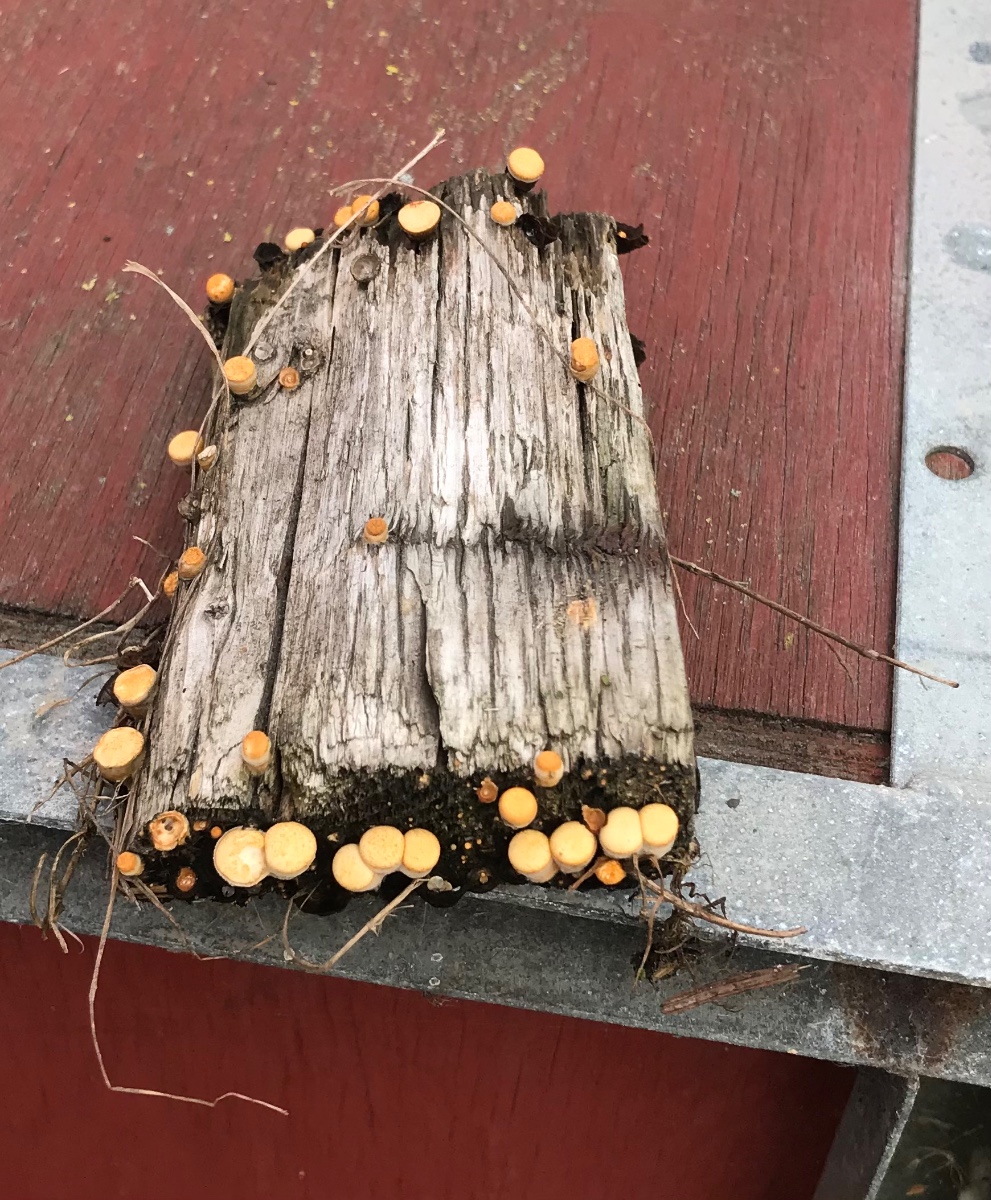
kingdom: Fungi
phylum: Basidiomycota
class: Agaricomycetes
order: Agaricales
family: Nidulariaceae
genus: Crucibulum
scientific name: Crucibulum crucibuliforme
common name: krukkesvamp
